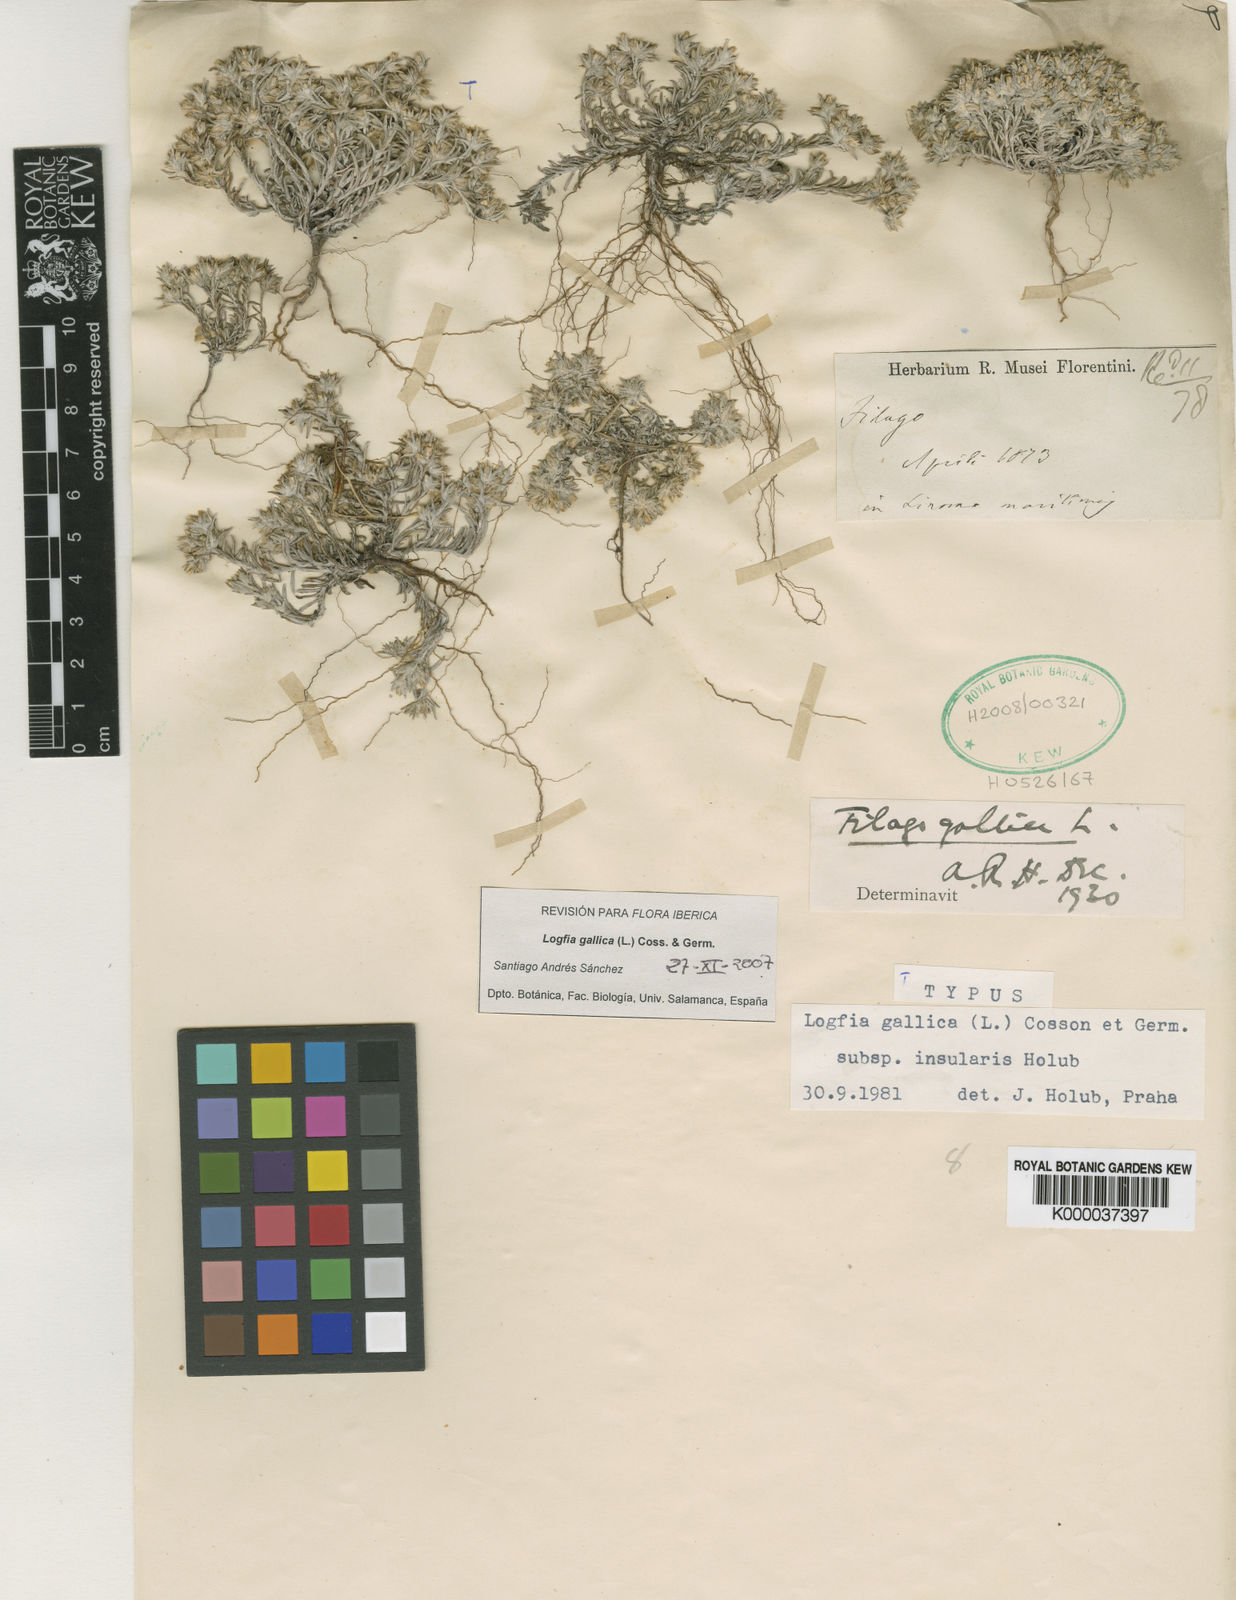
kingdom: Plantae
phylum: Tracheophyta
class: Magnoliopsida
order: Asterales
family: Asteraceae
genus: Logfia
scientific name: Logfia gallica
